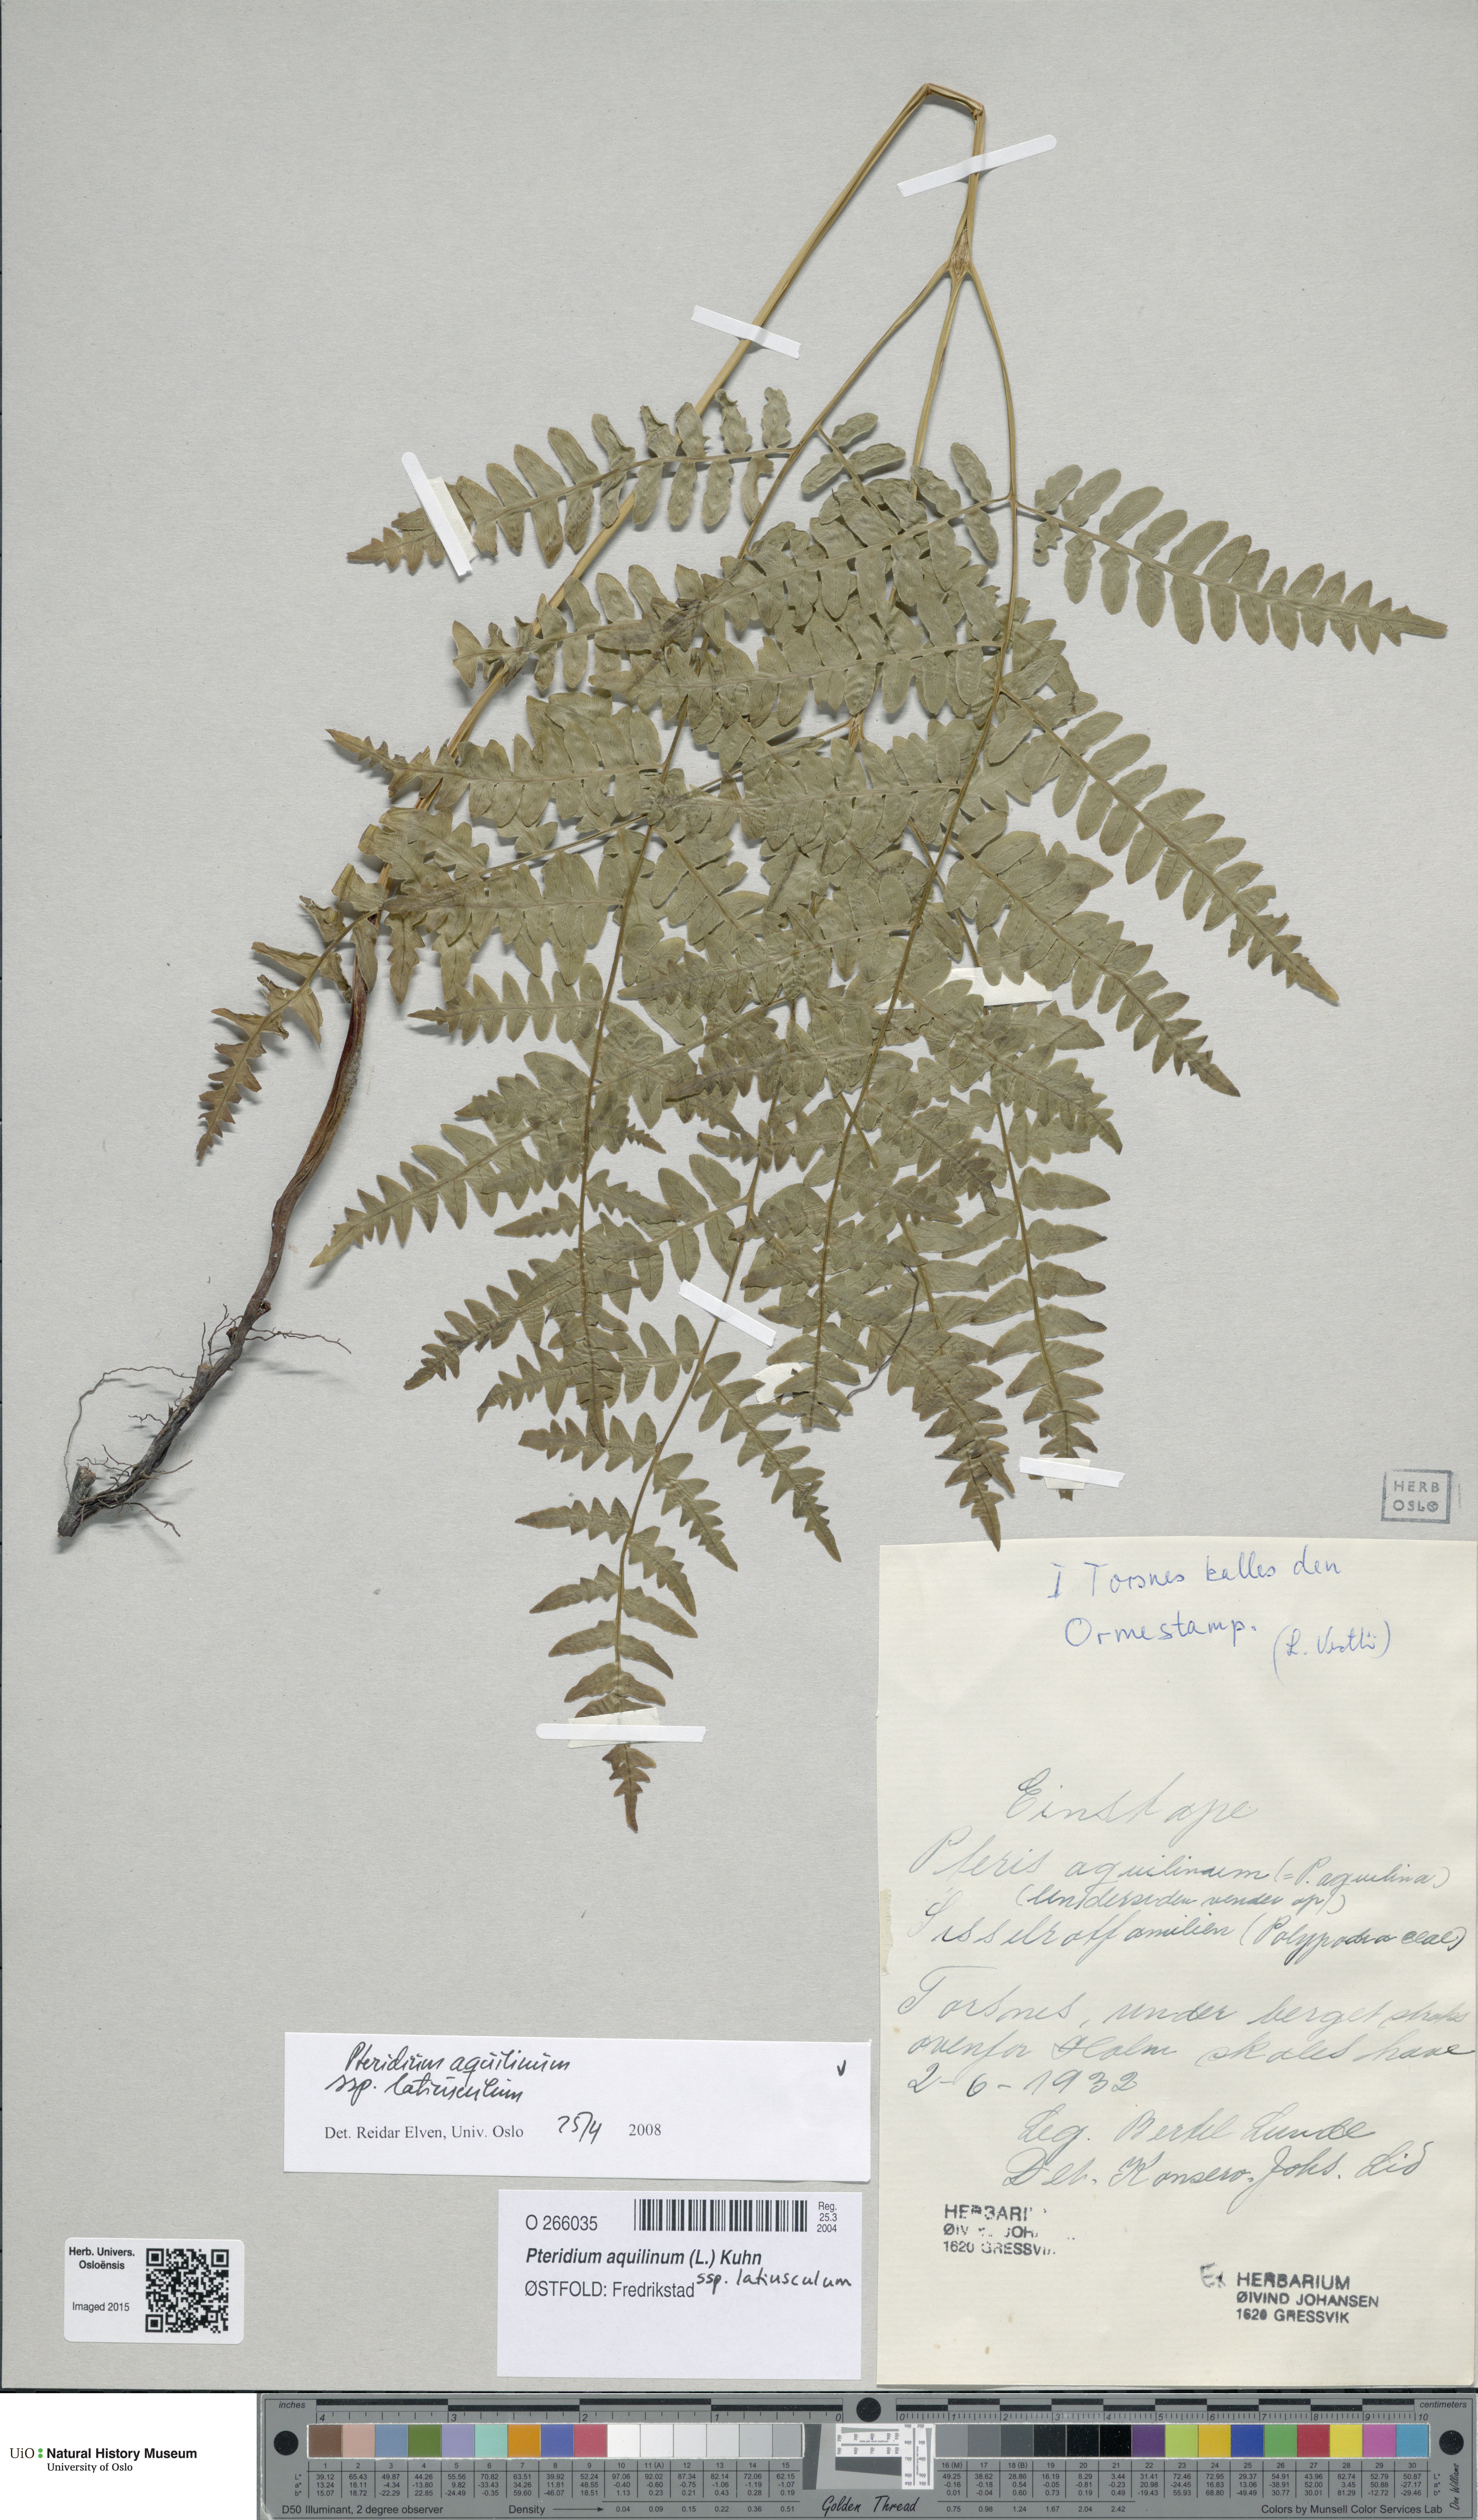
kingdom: Plantae
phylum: Tracheophyta
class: Polypodiopsida
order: Polypodiales
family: Dennstaedtiaceae
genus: Pteridium
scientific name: Pteridium aquilinum
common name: Bracken
